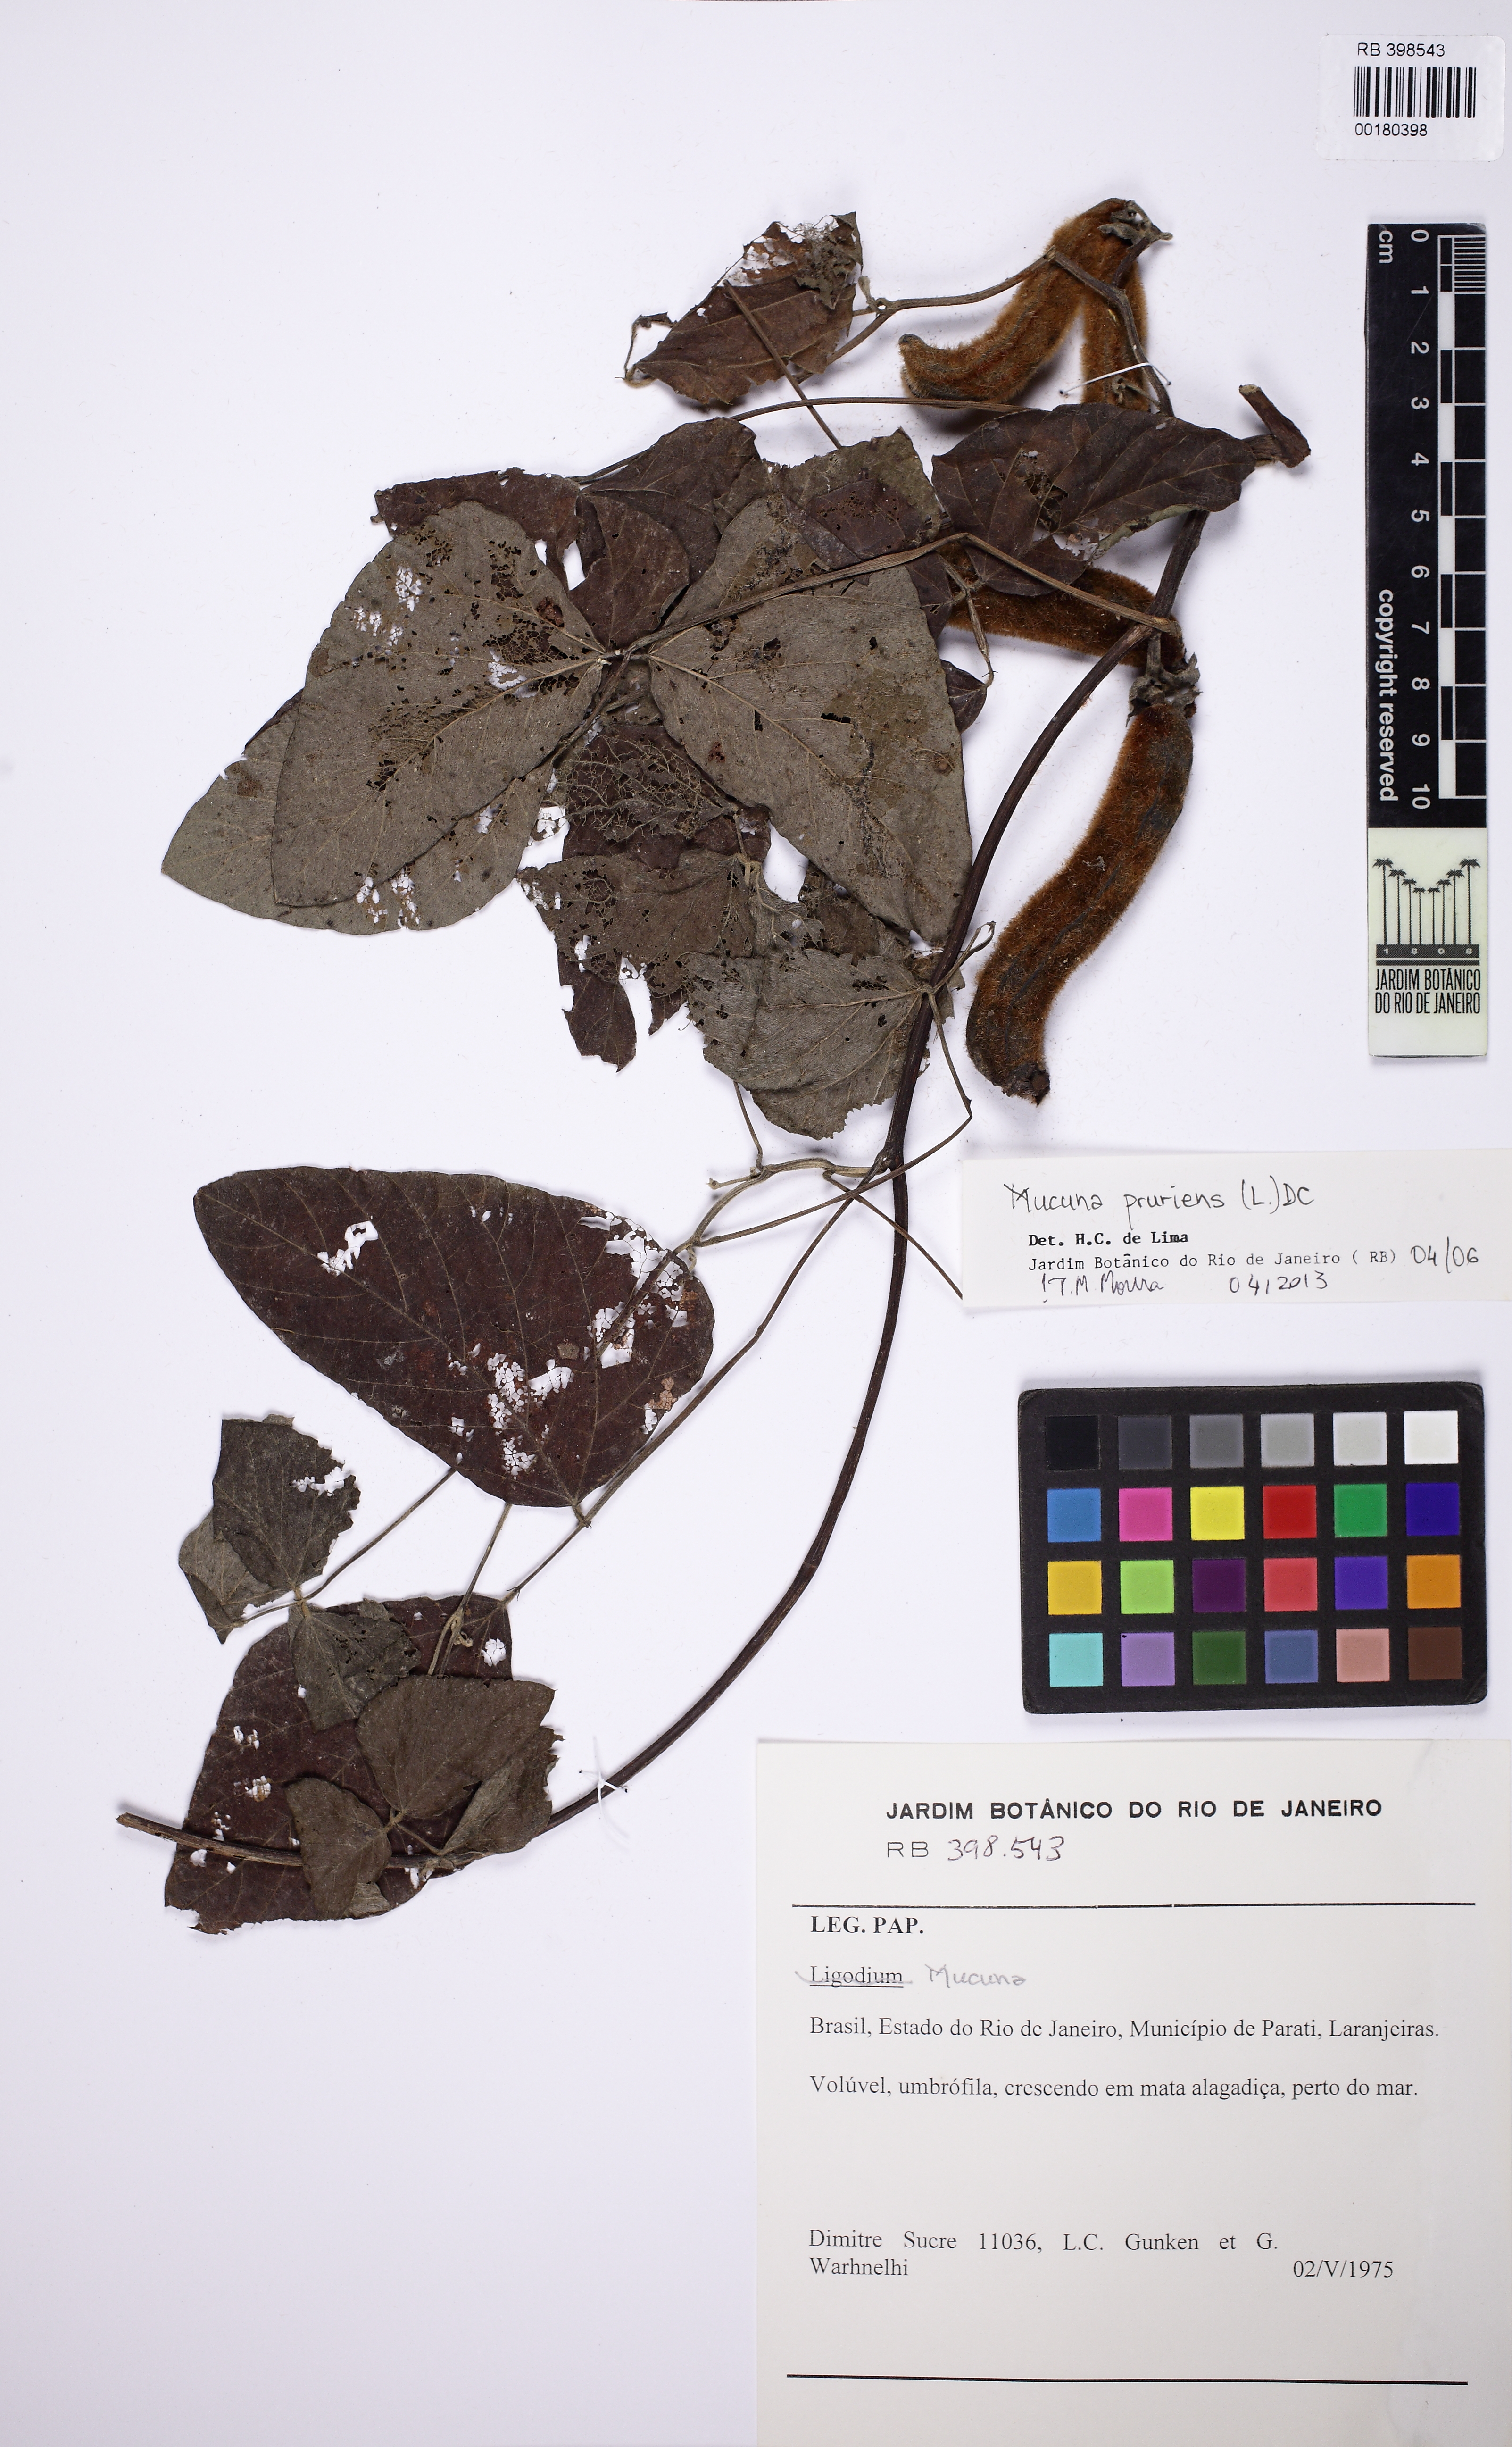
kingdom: Plantae
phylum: Tracheophyta
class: Magnoliopsida
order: Fabales
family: Fabaceae
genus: Mucuna
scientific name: Mucuna pruriens
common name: Cow-itch
